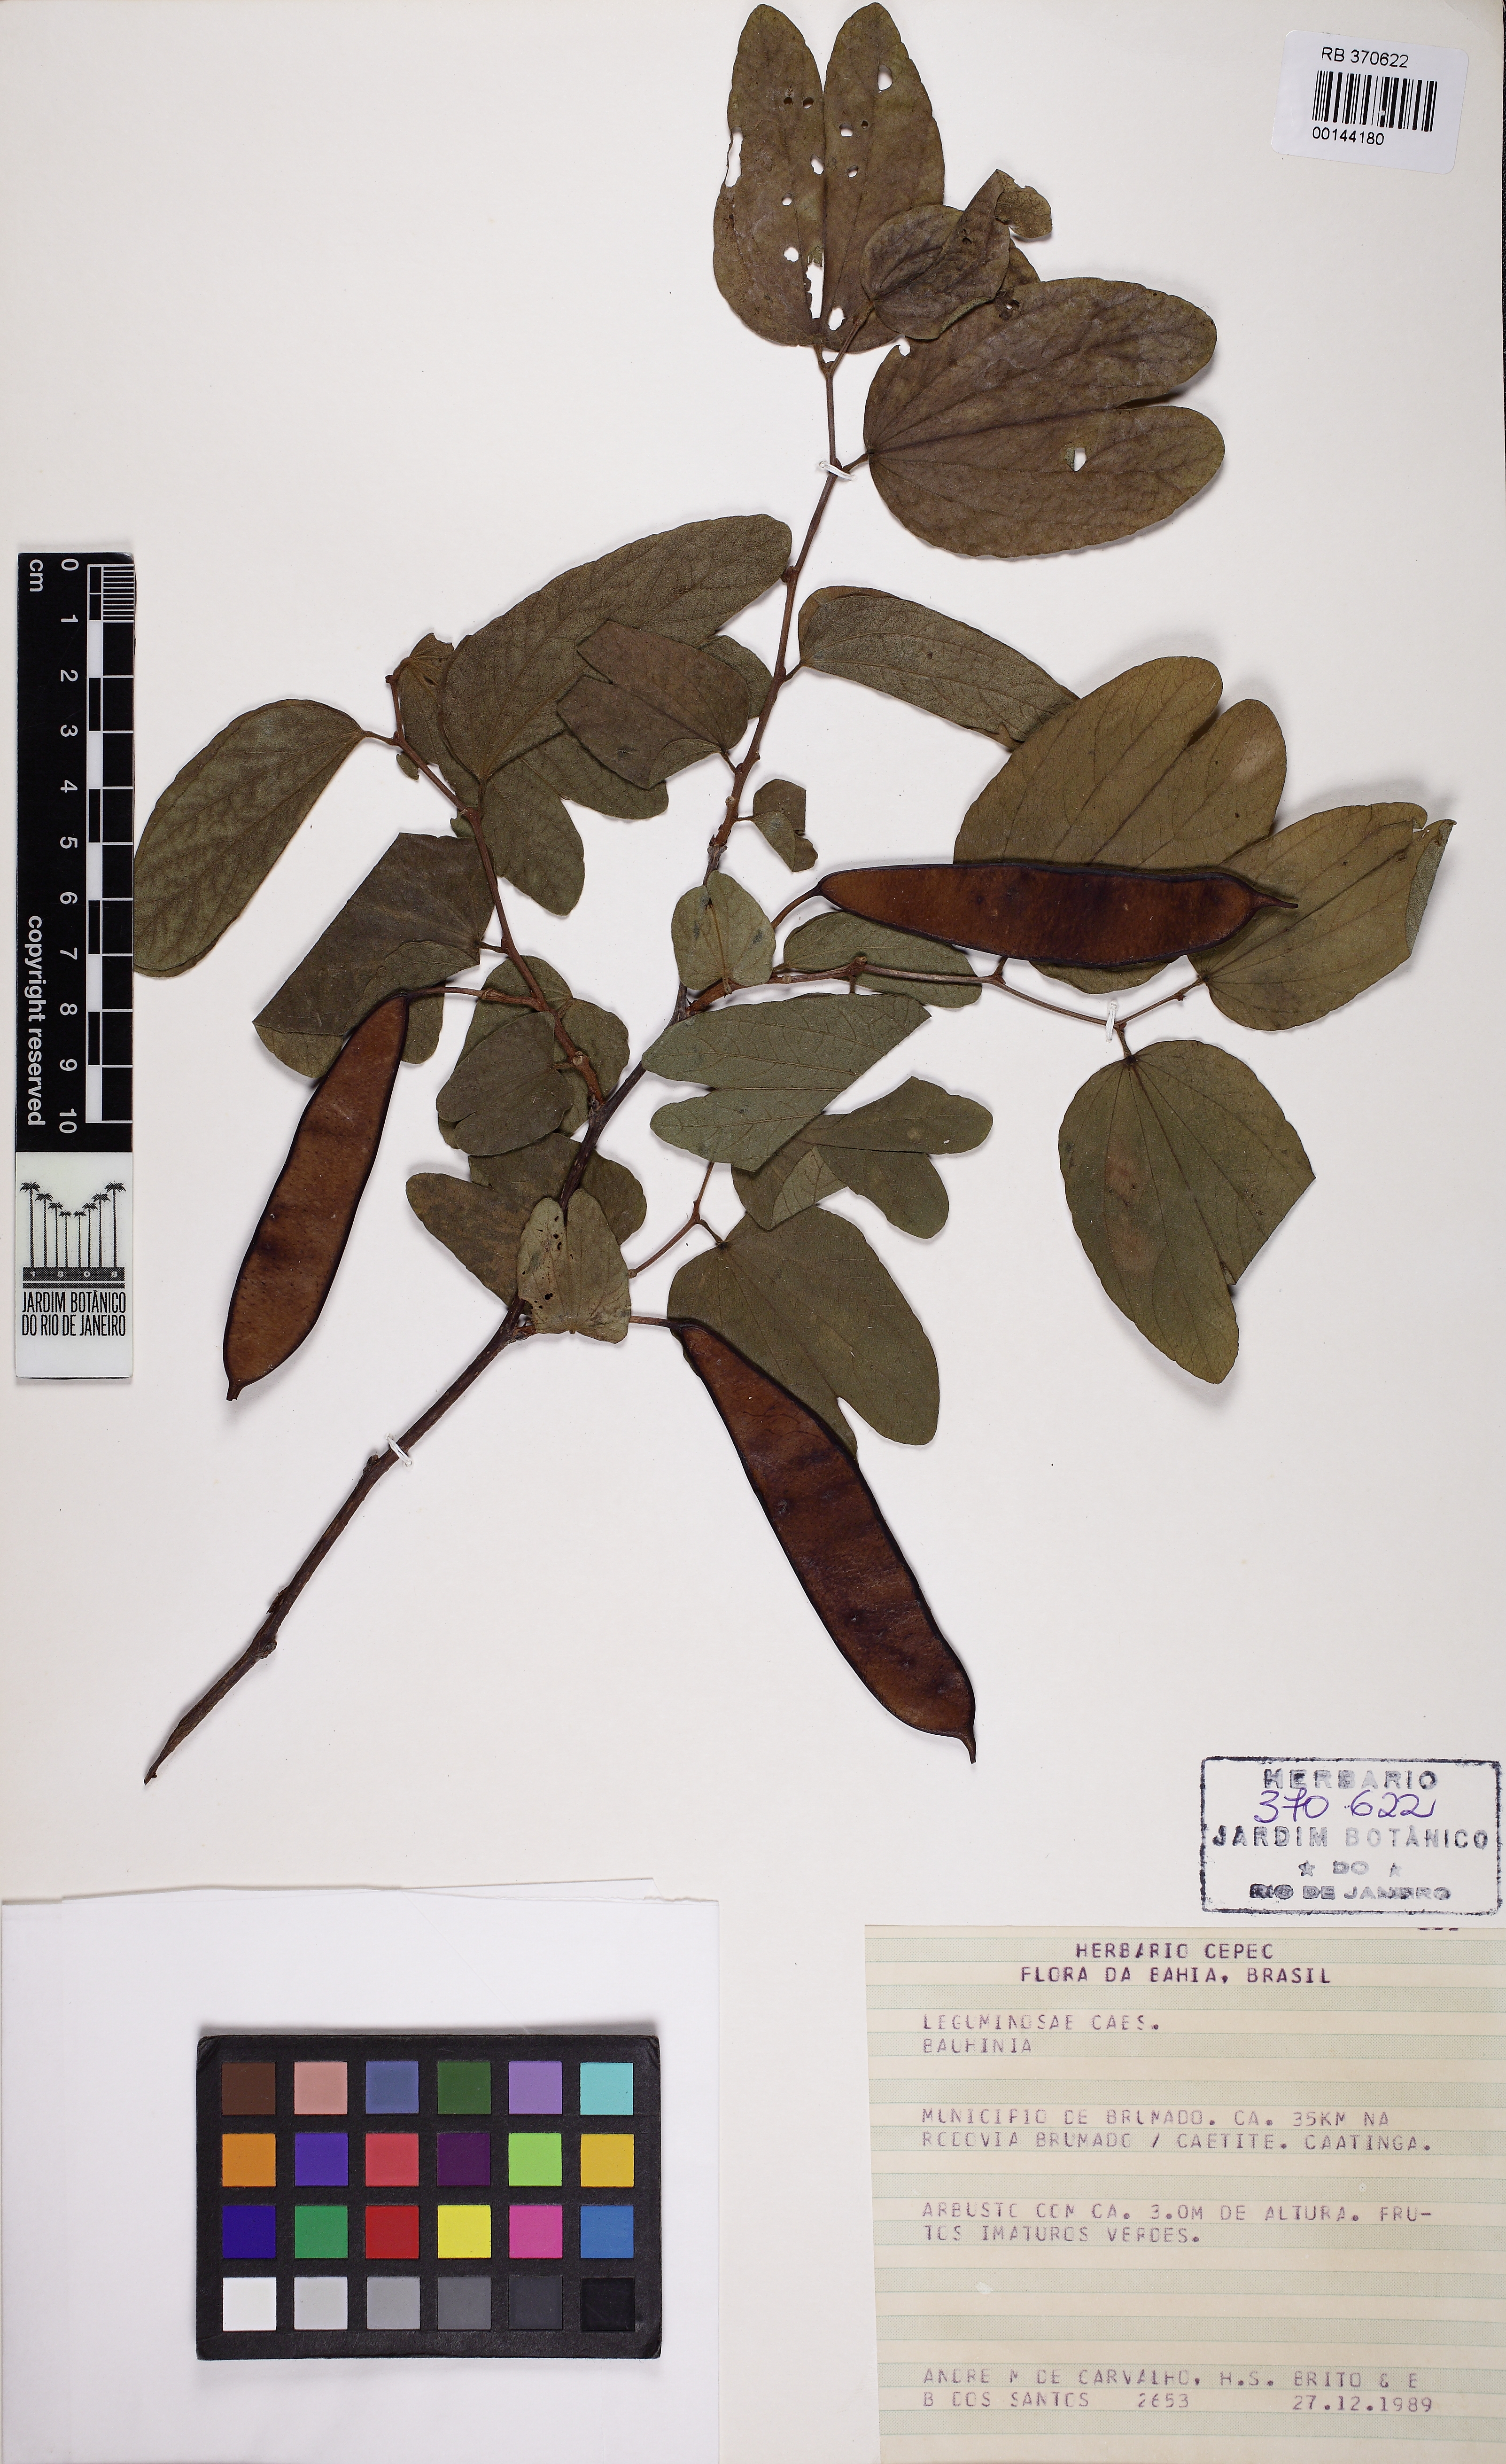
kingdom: Plantae
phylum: Tracheophyta
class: Magnoliopsida
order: Fabales
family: Fabaceae
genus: Bauhinia
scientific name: Bauhinia
